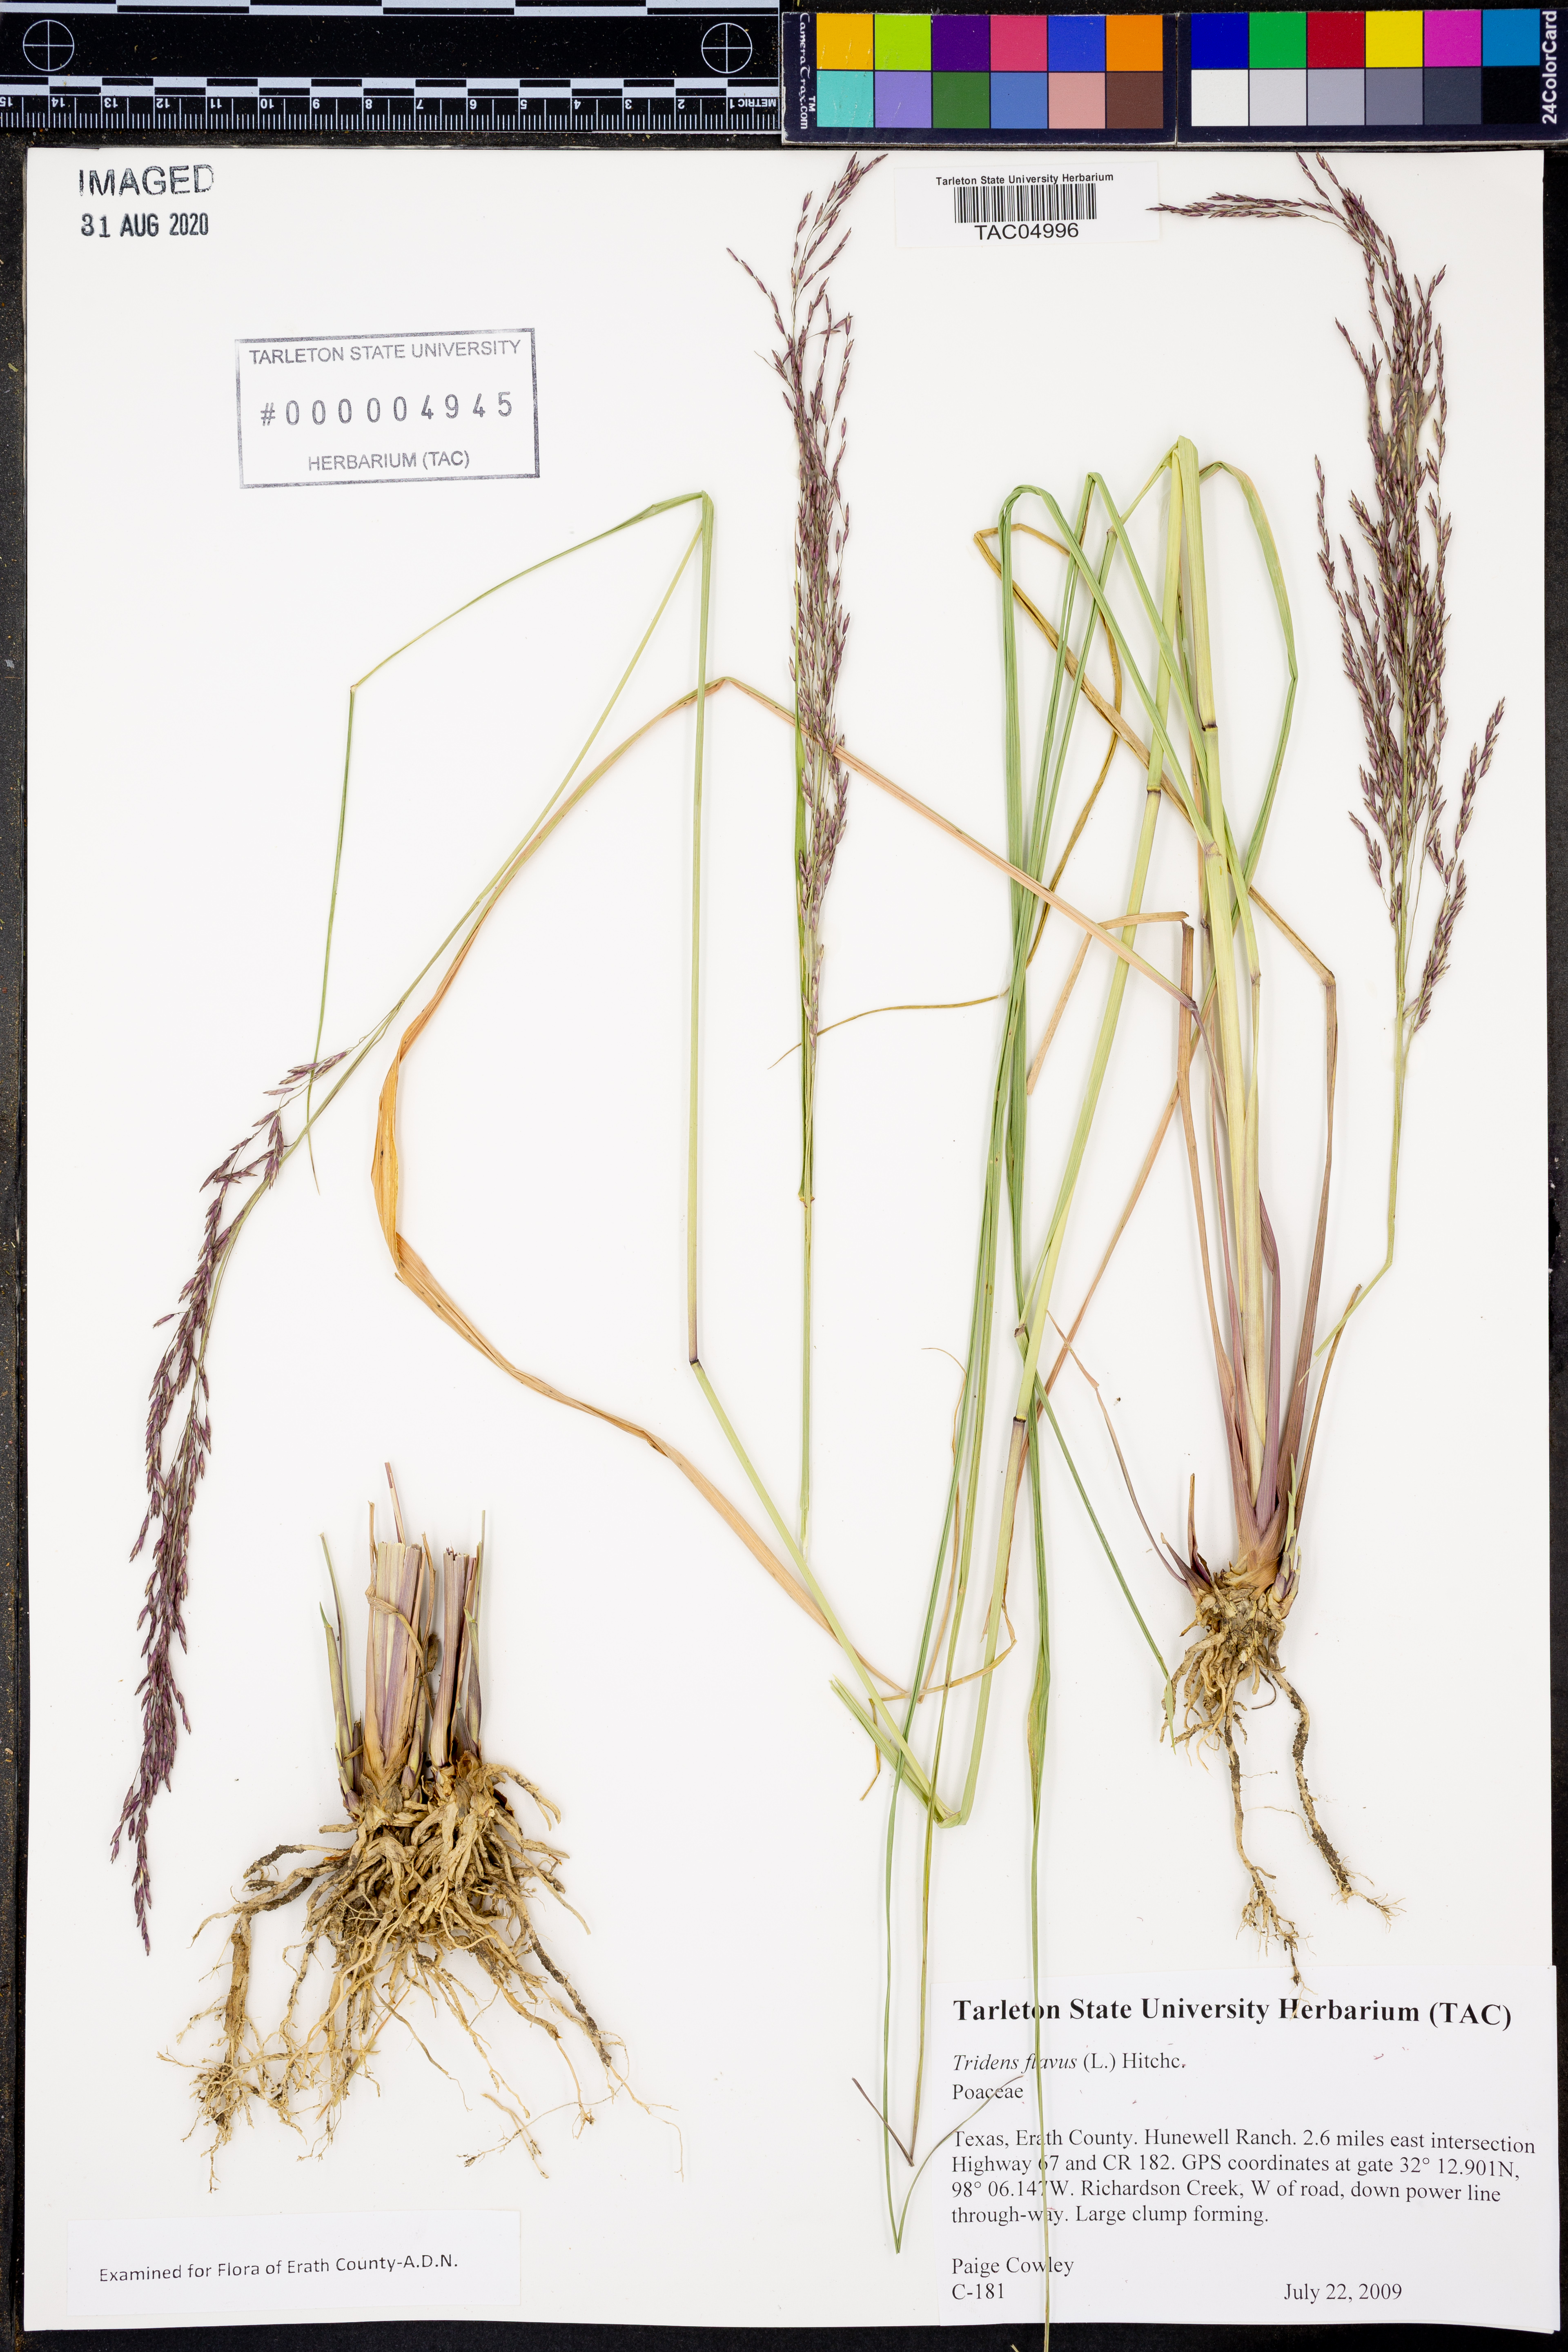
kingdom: Plantae
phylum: Tracheophyta
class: Liliopsida
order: Poales
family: Poaceae
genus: Tridens
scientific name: Tridens flavus
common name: Purpletop
